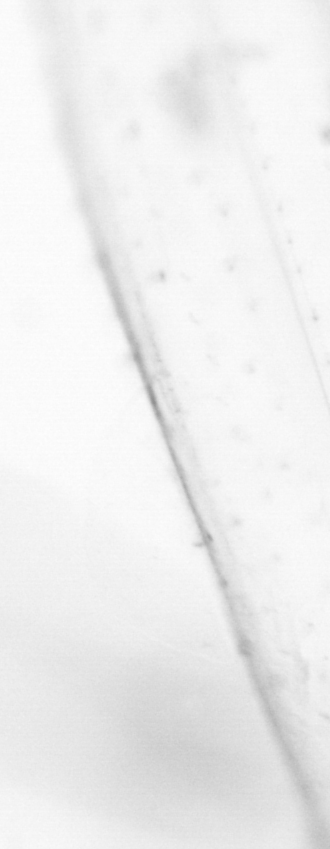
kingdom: Animalia
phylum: Chordata
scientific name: Chordata
